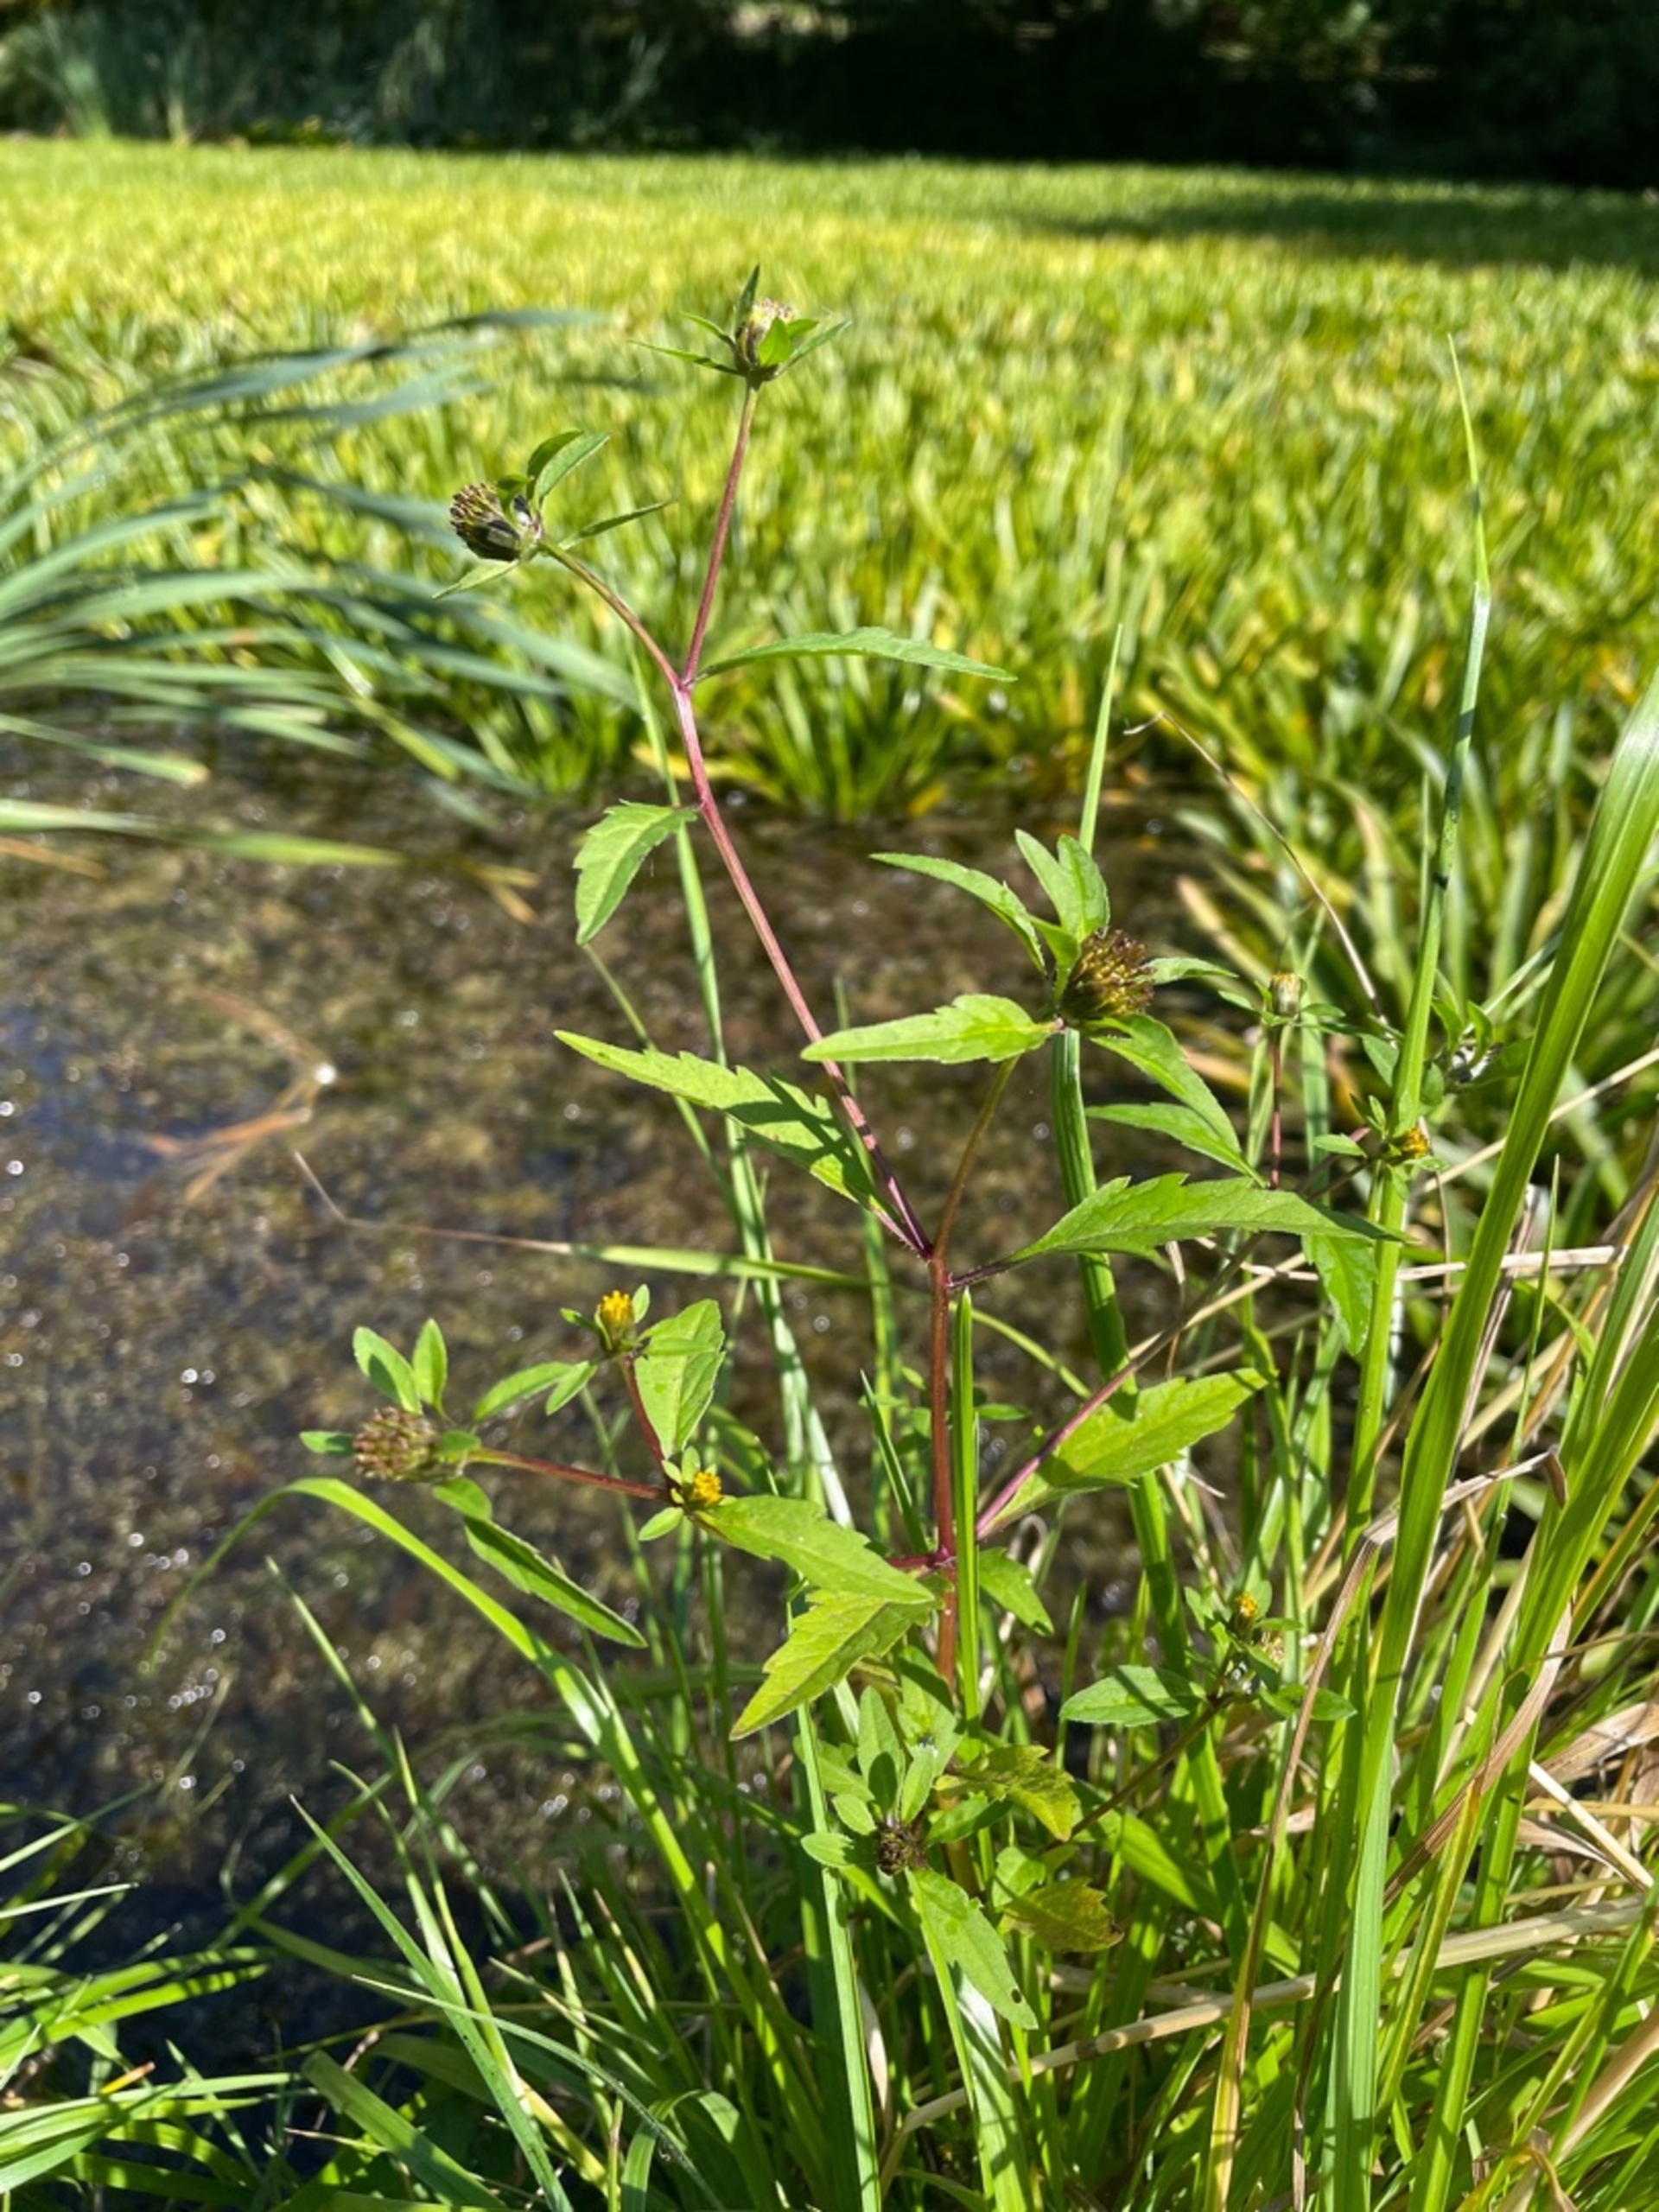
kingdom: Plantae
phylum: Tracheophyta
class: Magnoliopsida
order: Asterales
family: Asteraceae
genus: Bidens
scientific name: Bidens tripartita
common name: Fliget brøndsel
